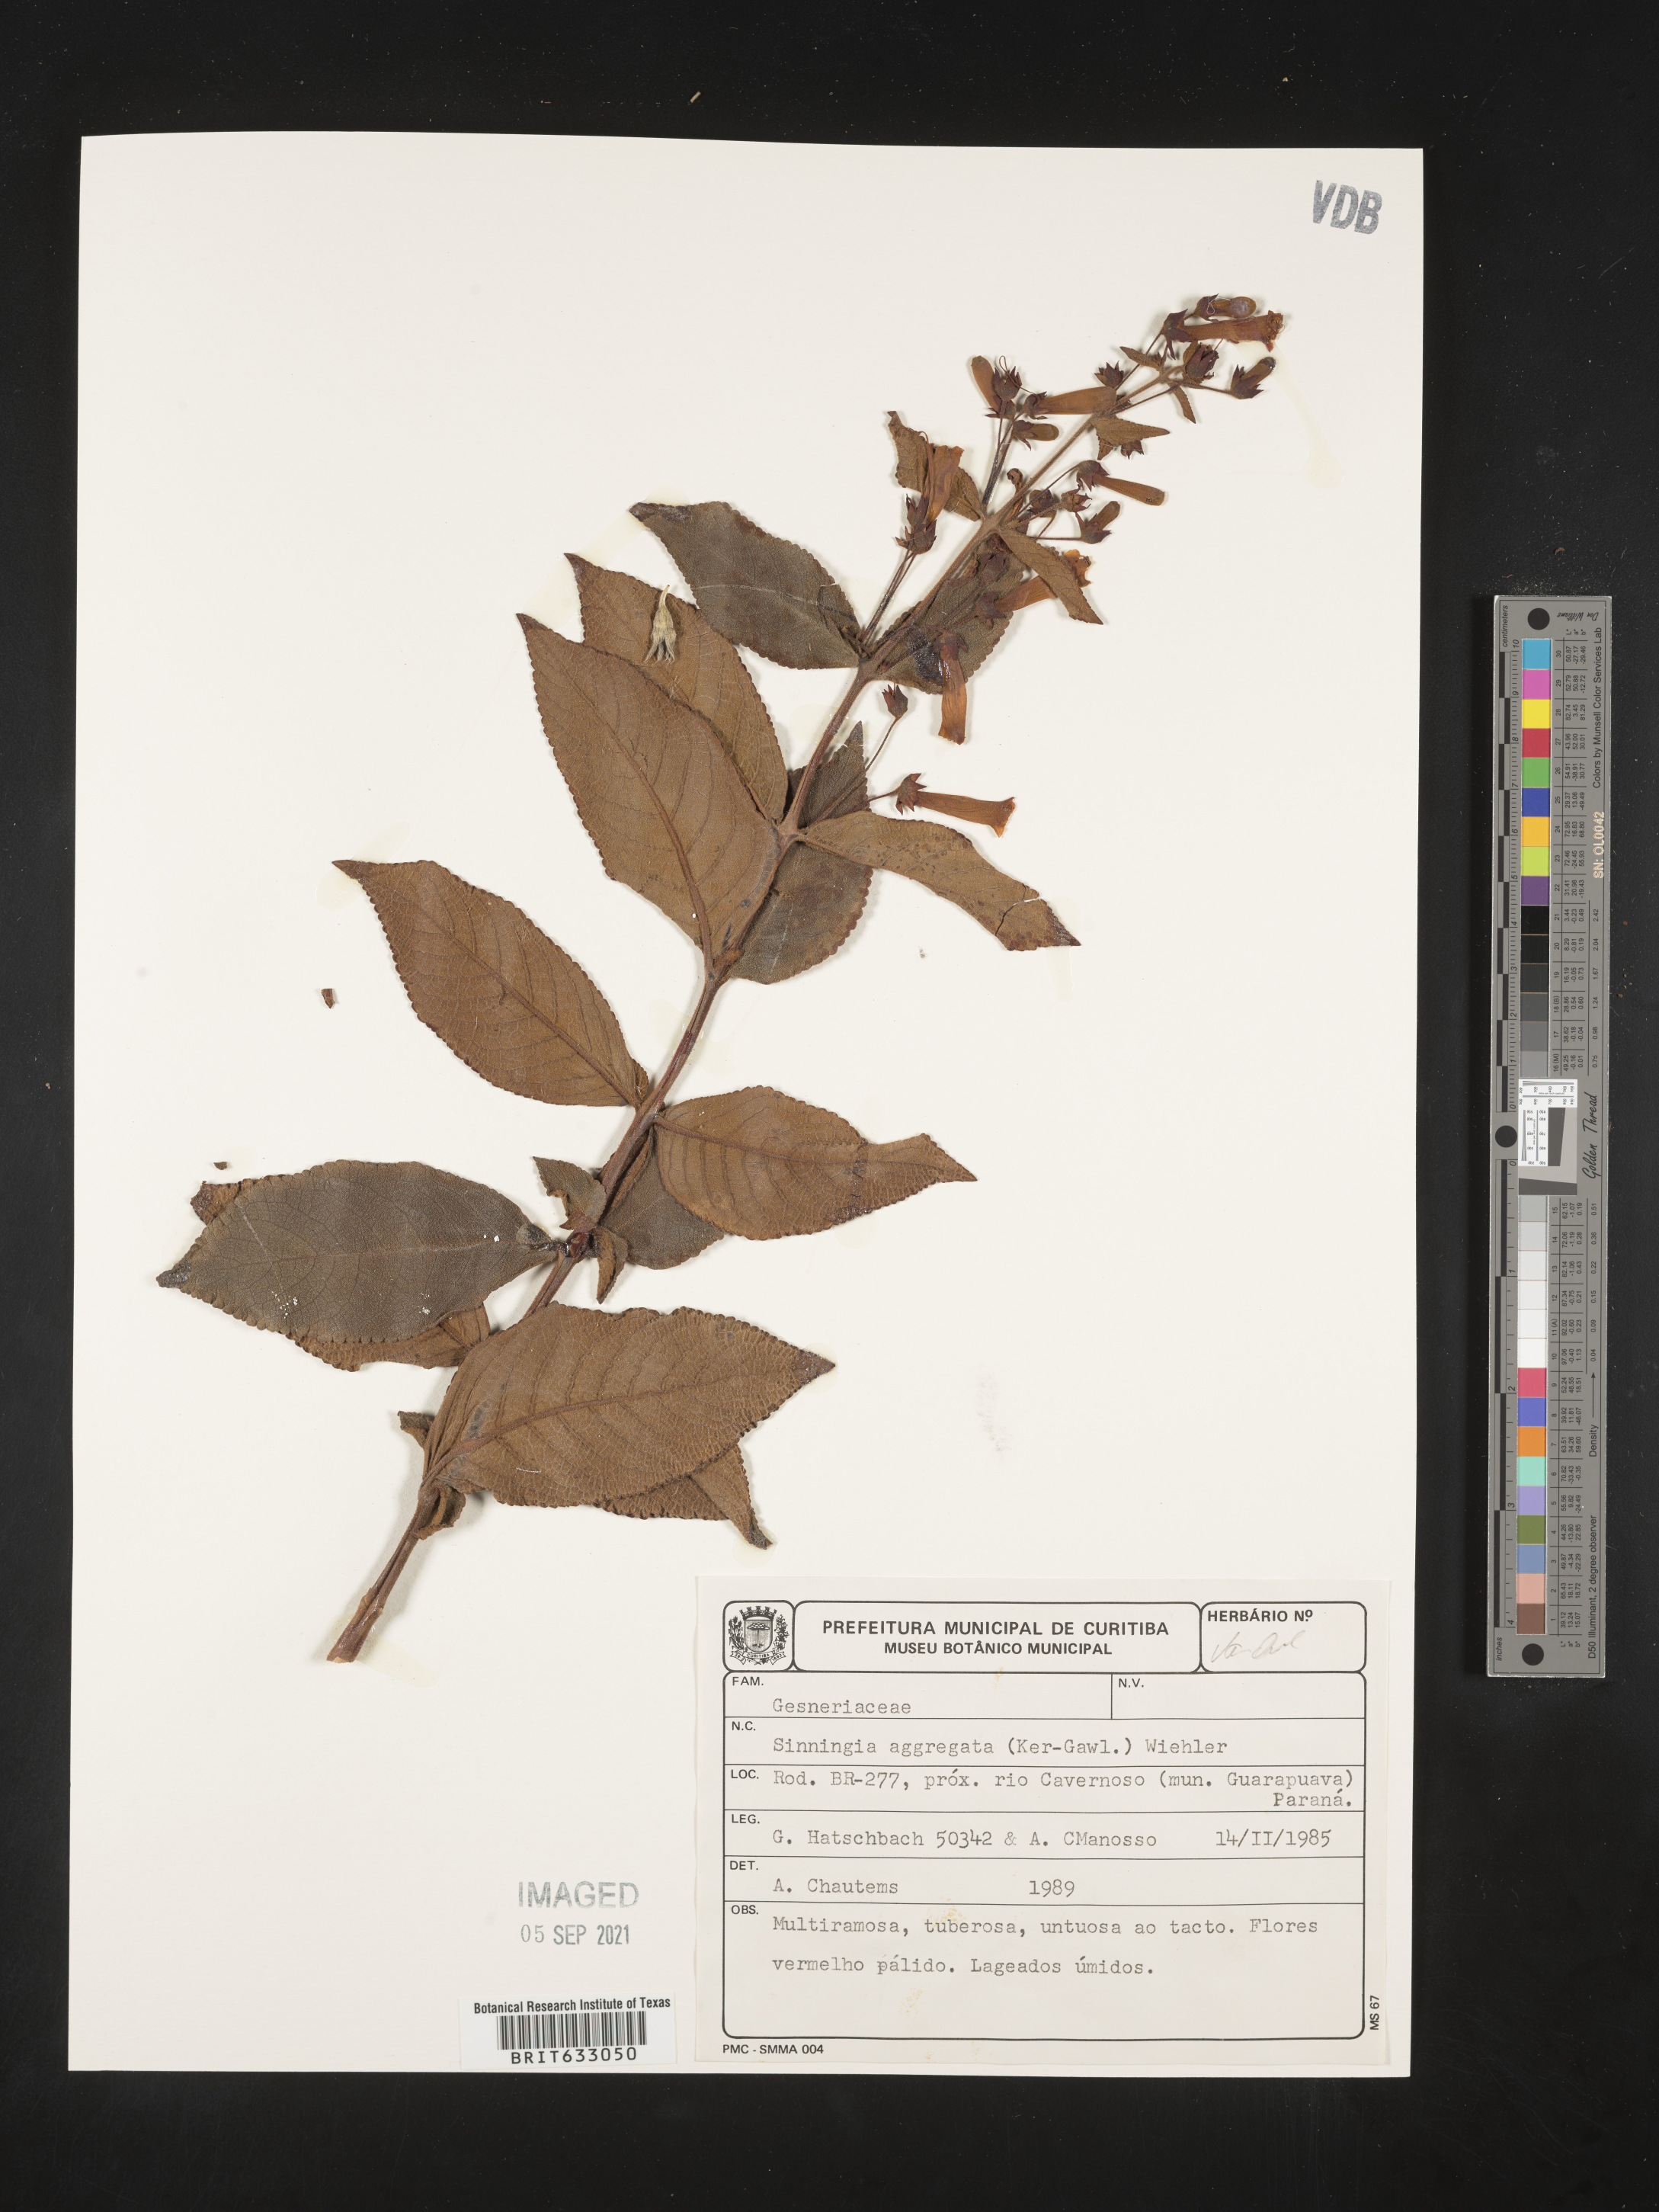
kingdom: Plantae
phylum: Tracheophyta
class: Magnoliopsida
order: Lamiales
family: Gesneriaceae
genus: Sinningia
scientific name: Sinningia
